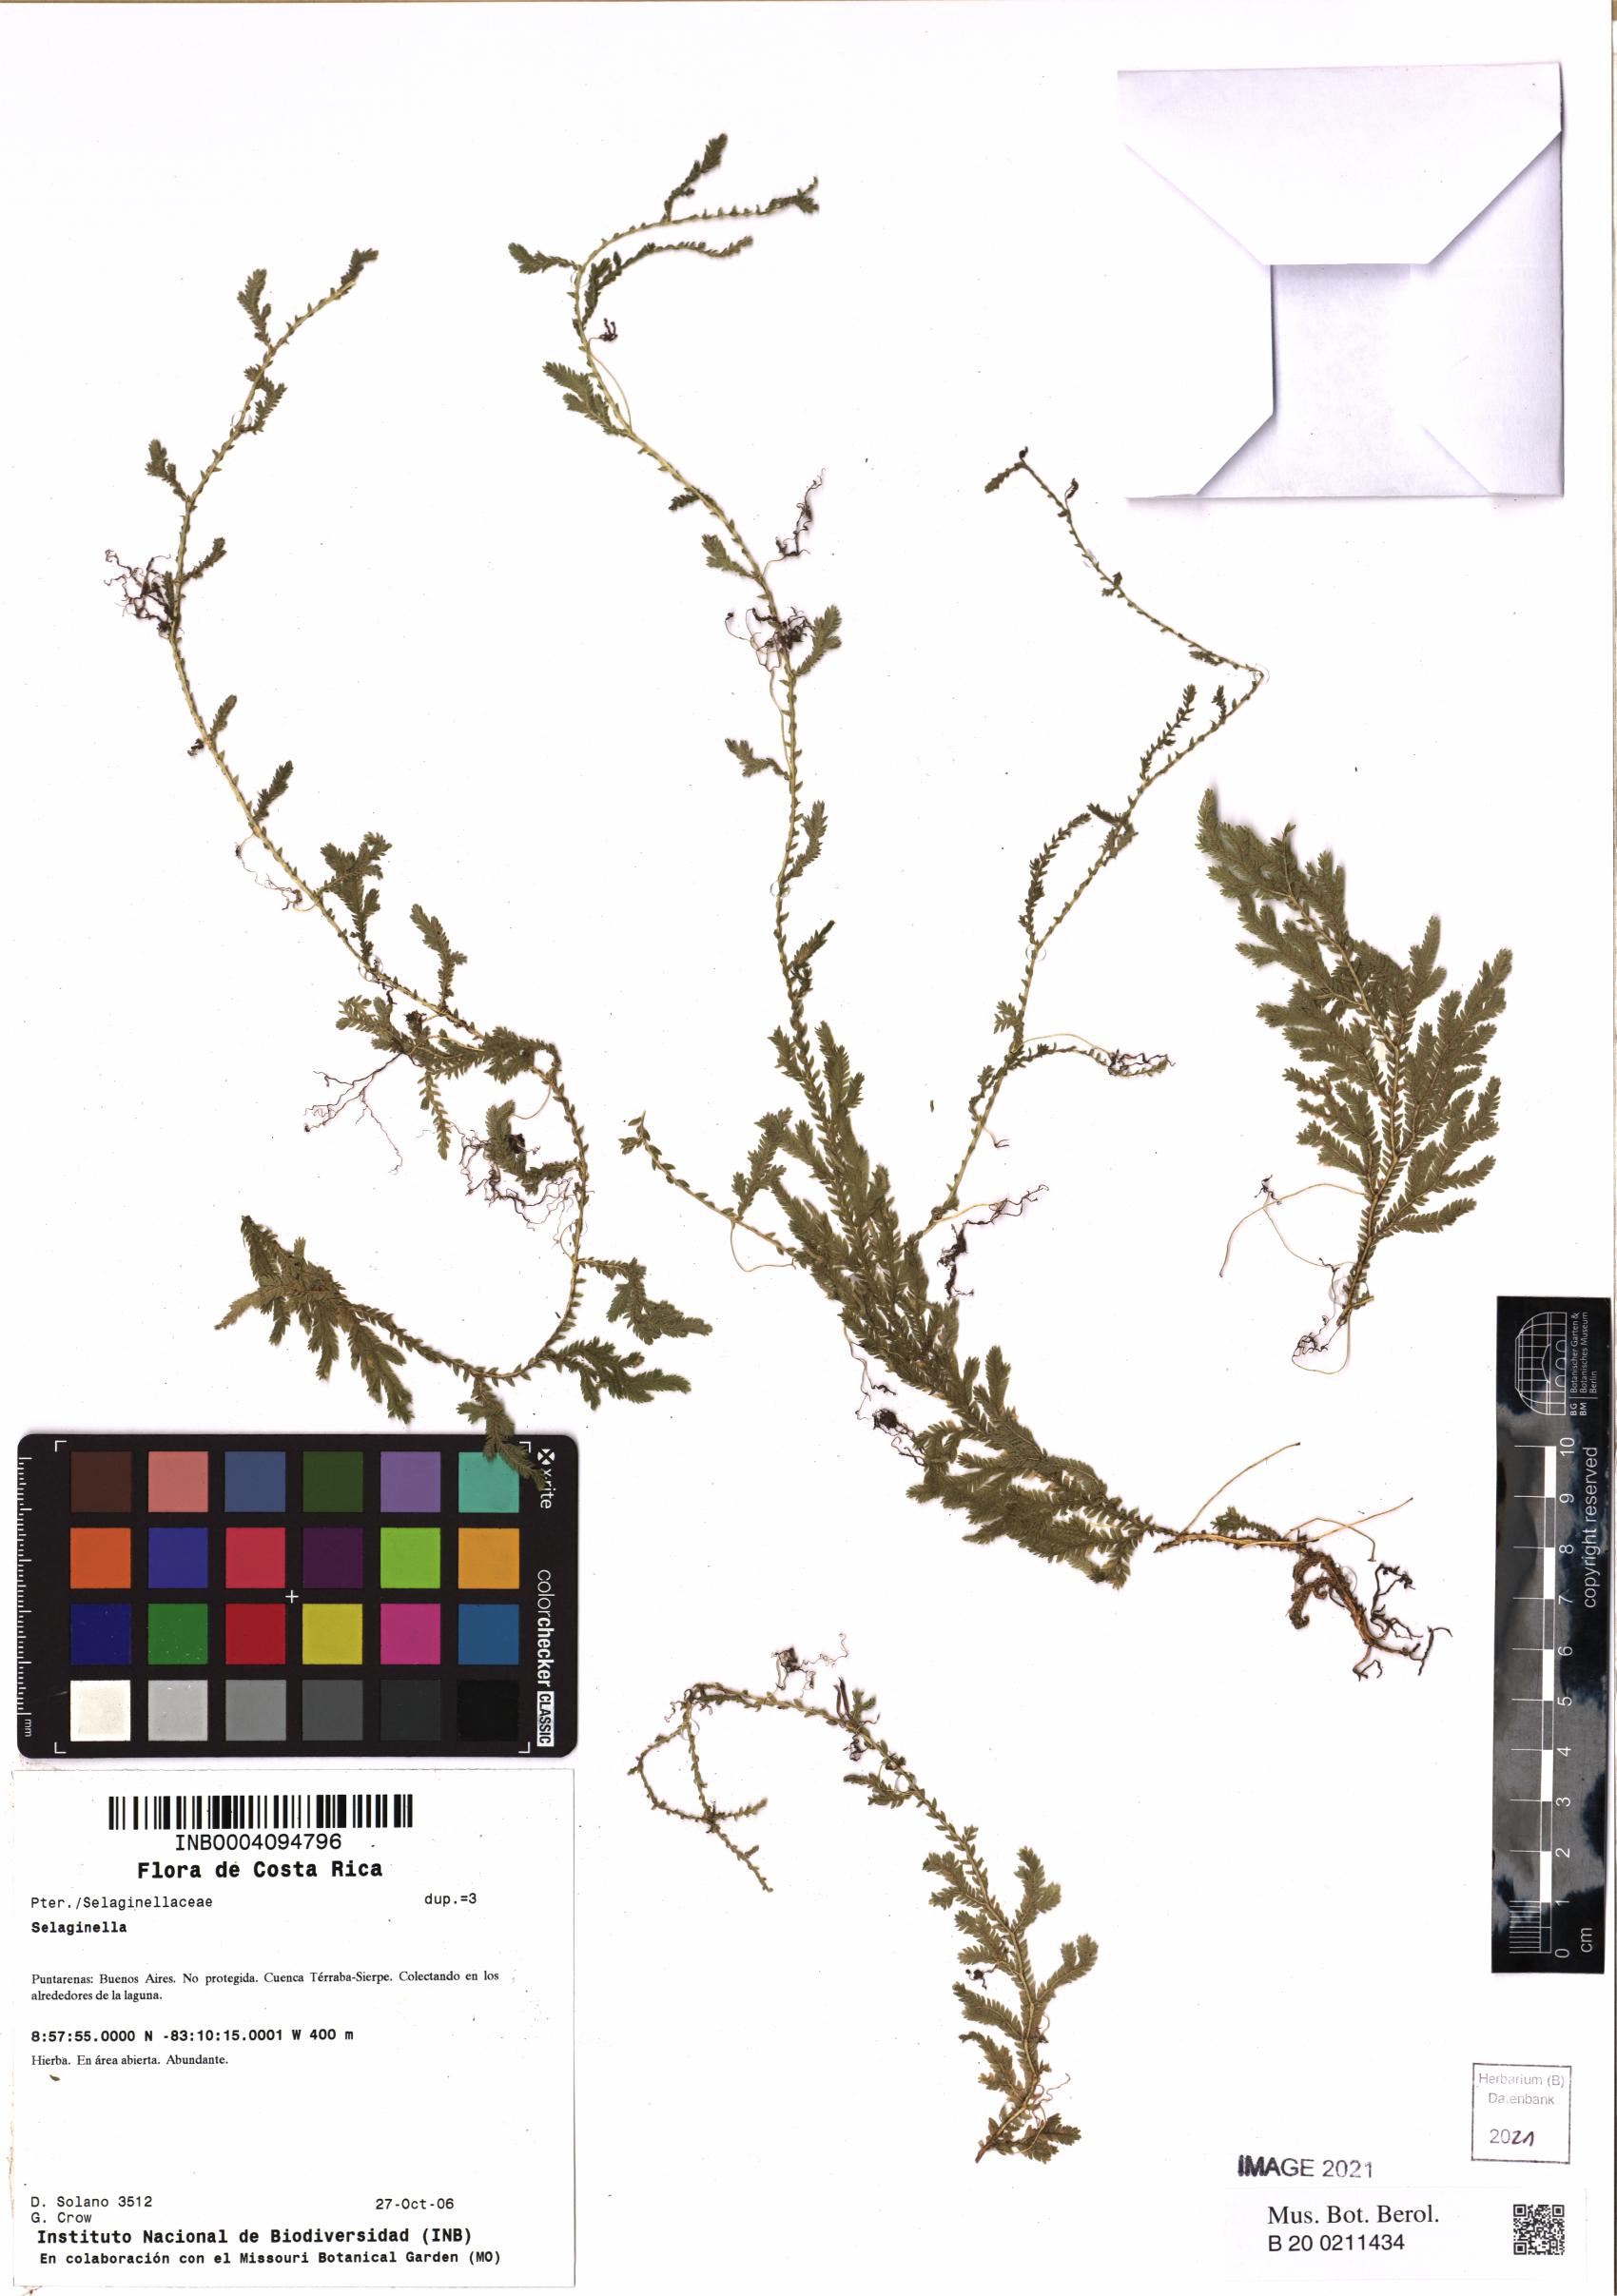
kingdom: Plantae
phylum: Tracheophyta
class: Lycopodiopsida
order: Selaginellales
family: Selaginellaceae
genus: Selaginella
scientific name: Selaginella
